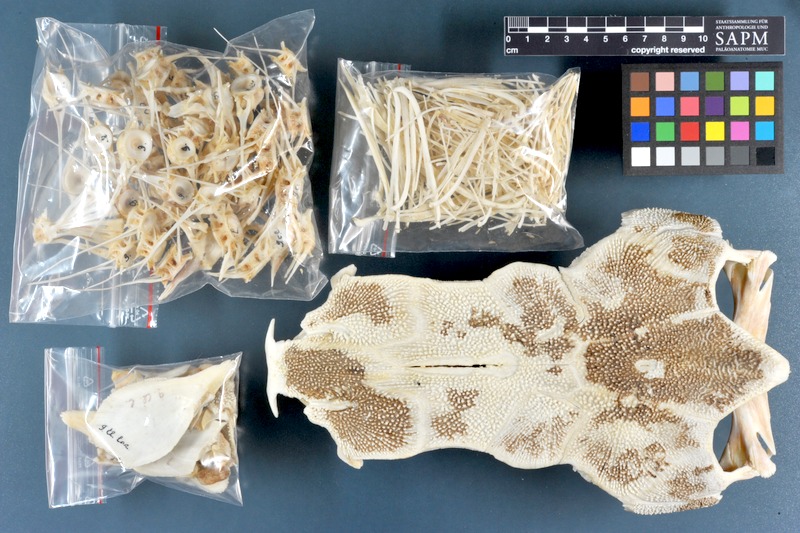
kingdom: Animalia
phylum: Chordata
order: Siluriformes
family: Clariidae
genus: Clarias
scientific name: Clarias gariepinus
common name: African catfish
